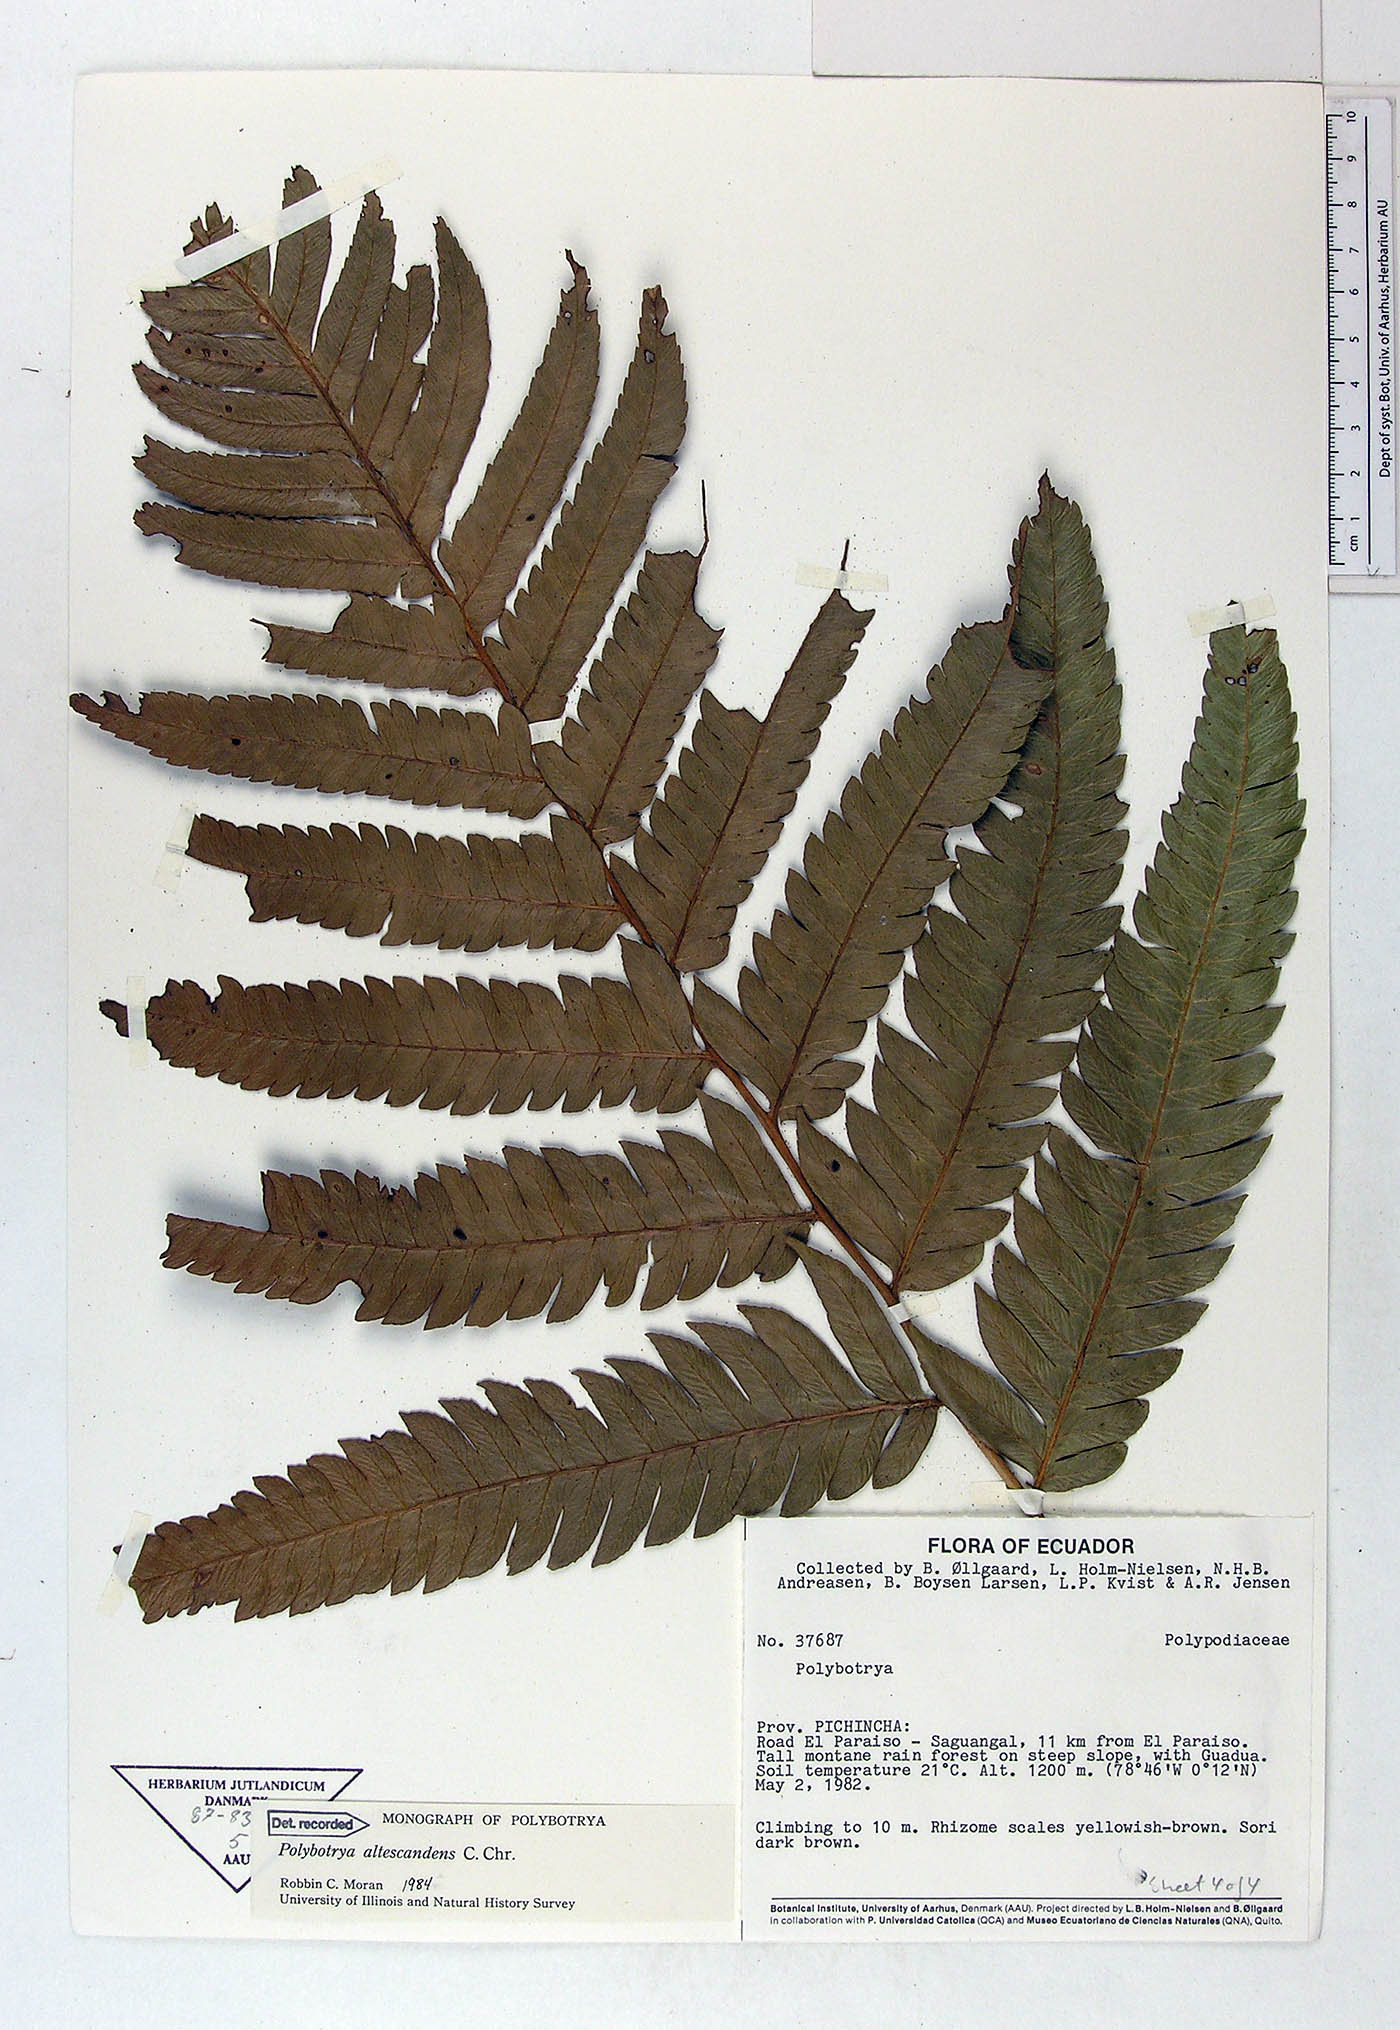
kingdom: Plantae
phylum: Tracheophyta
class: Polypodiopsida
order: Polypodiales
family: Dryopteridaceae
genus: Polybotrya
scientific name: Polybotrya altescandens
